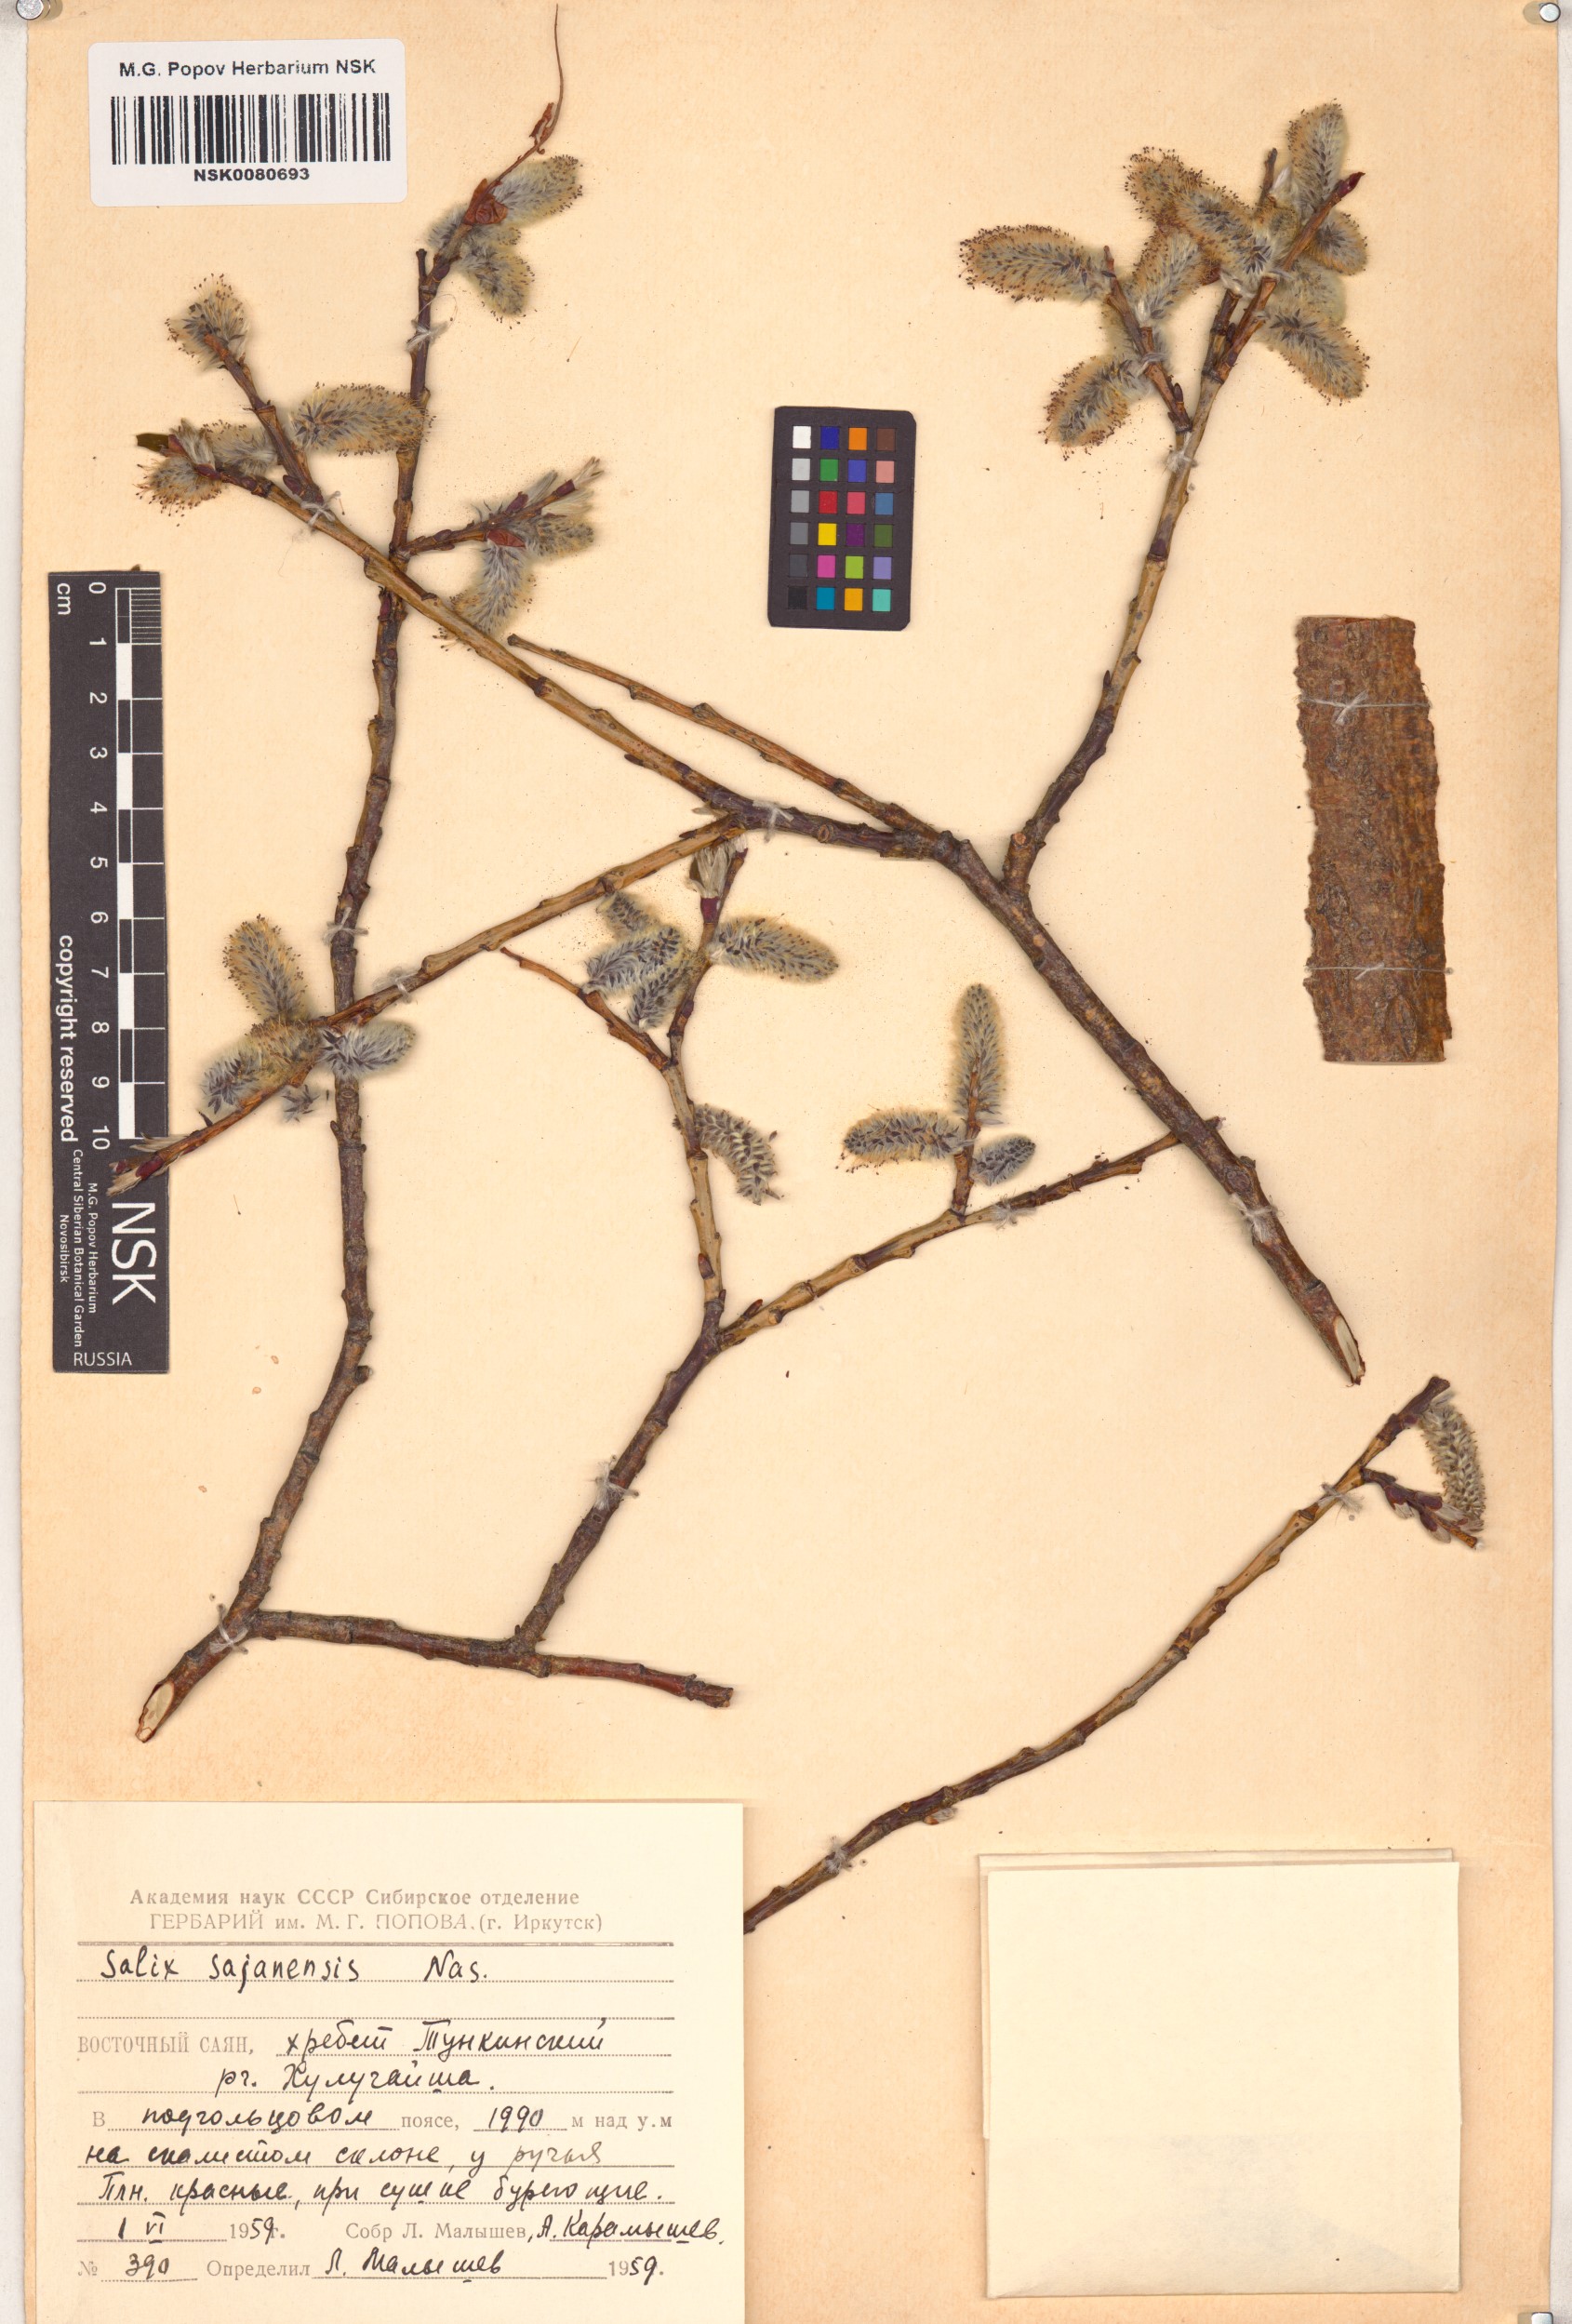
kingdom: Plantae
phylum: Tracheophyta
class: Magnoliopsida
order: Malpighiales
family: Salicaceae
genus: Salix
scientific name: Salix sajanensis
